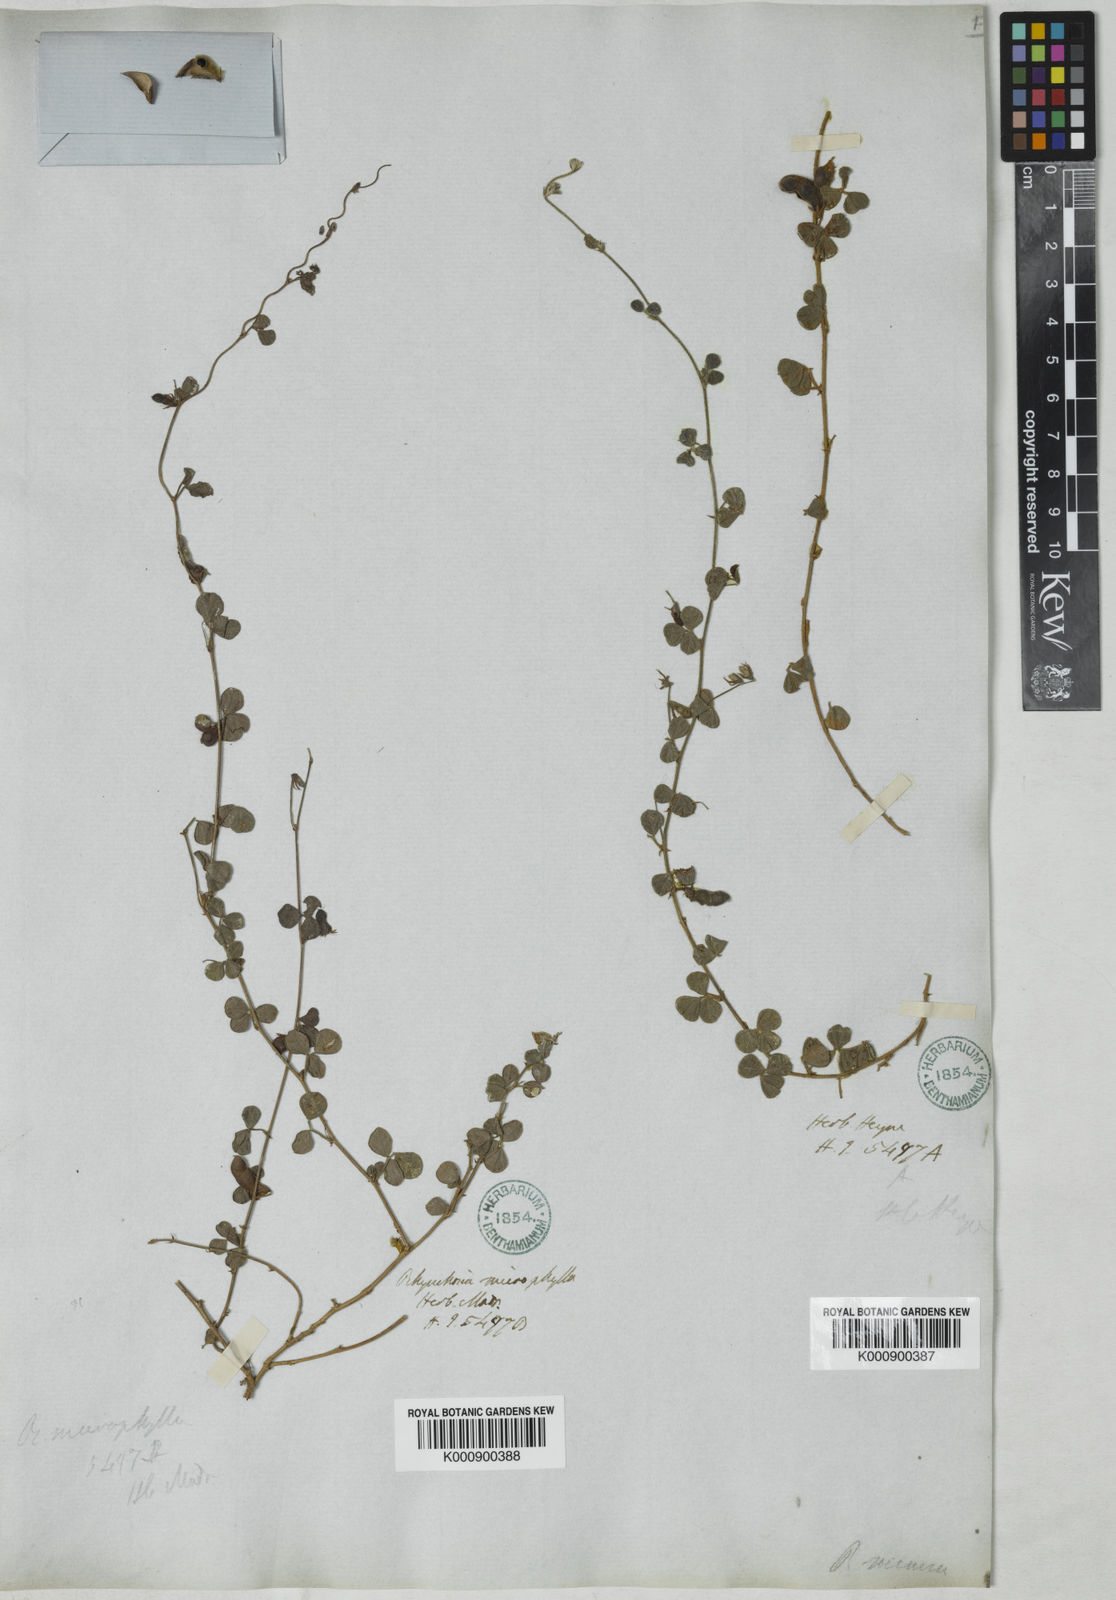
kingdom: Plantae
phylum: Tracheophyta
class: Magnoliopsida
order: Fabales
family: Fabaceae
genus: Rhynchosia
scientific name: Rhynchosia minima
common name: Least snoutbean
